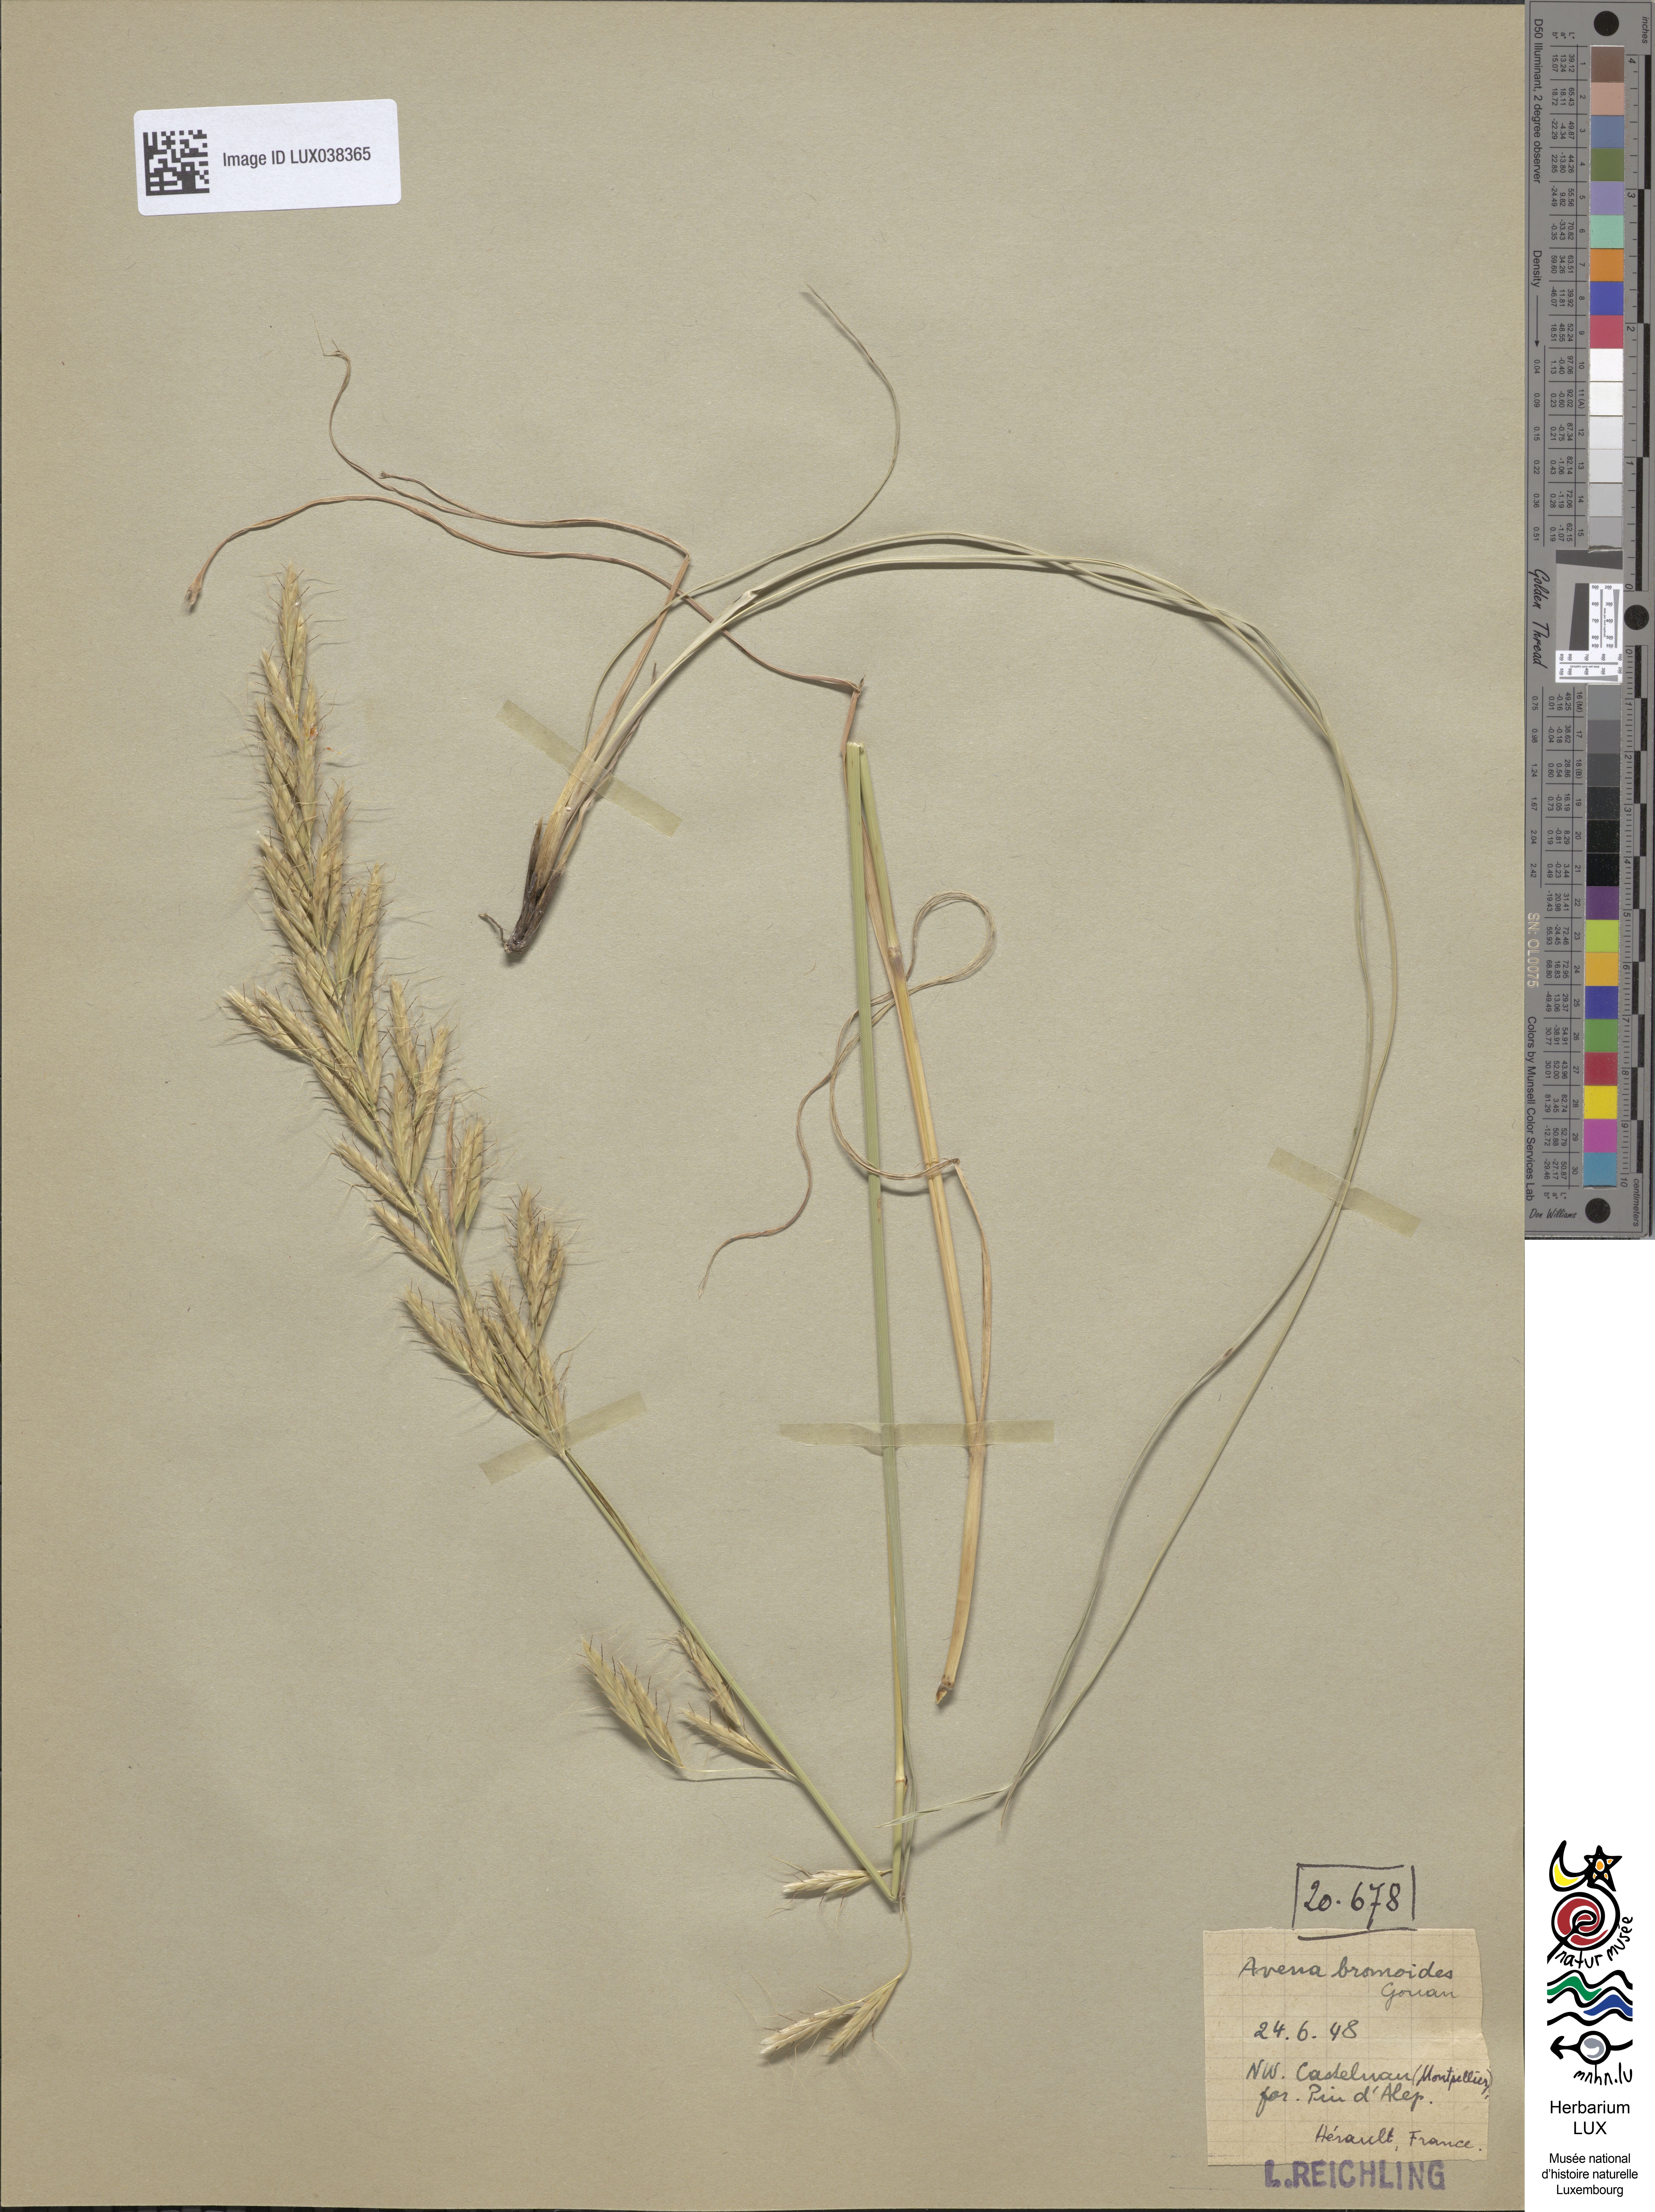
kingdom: Plantae
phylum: Tracheophyta
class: Liliopsida
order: Poales
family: Poaceae
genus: Helictochloa
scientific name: Helictochloa bromoides
